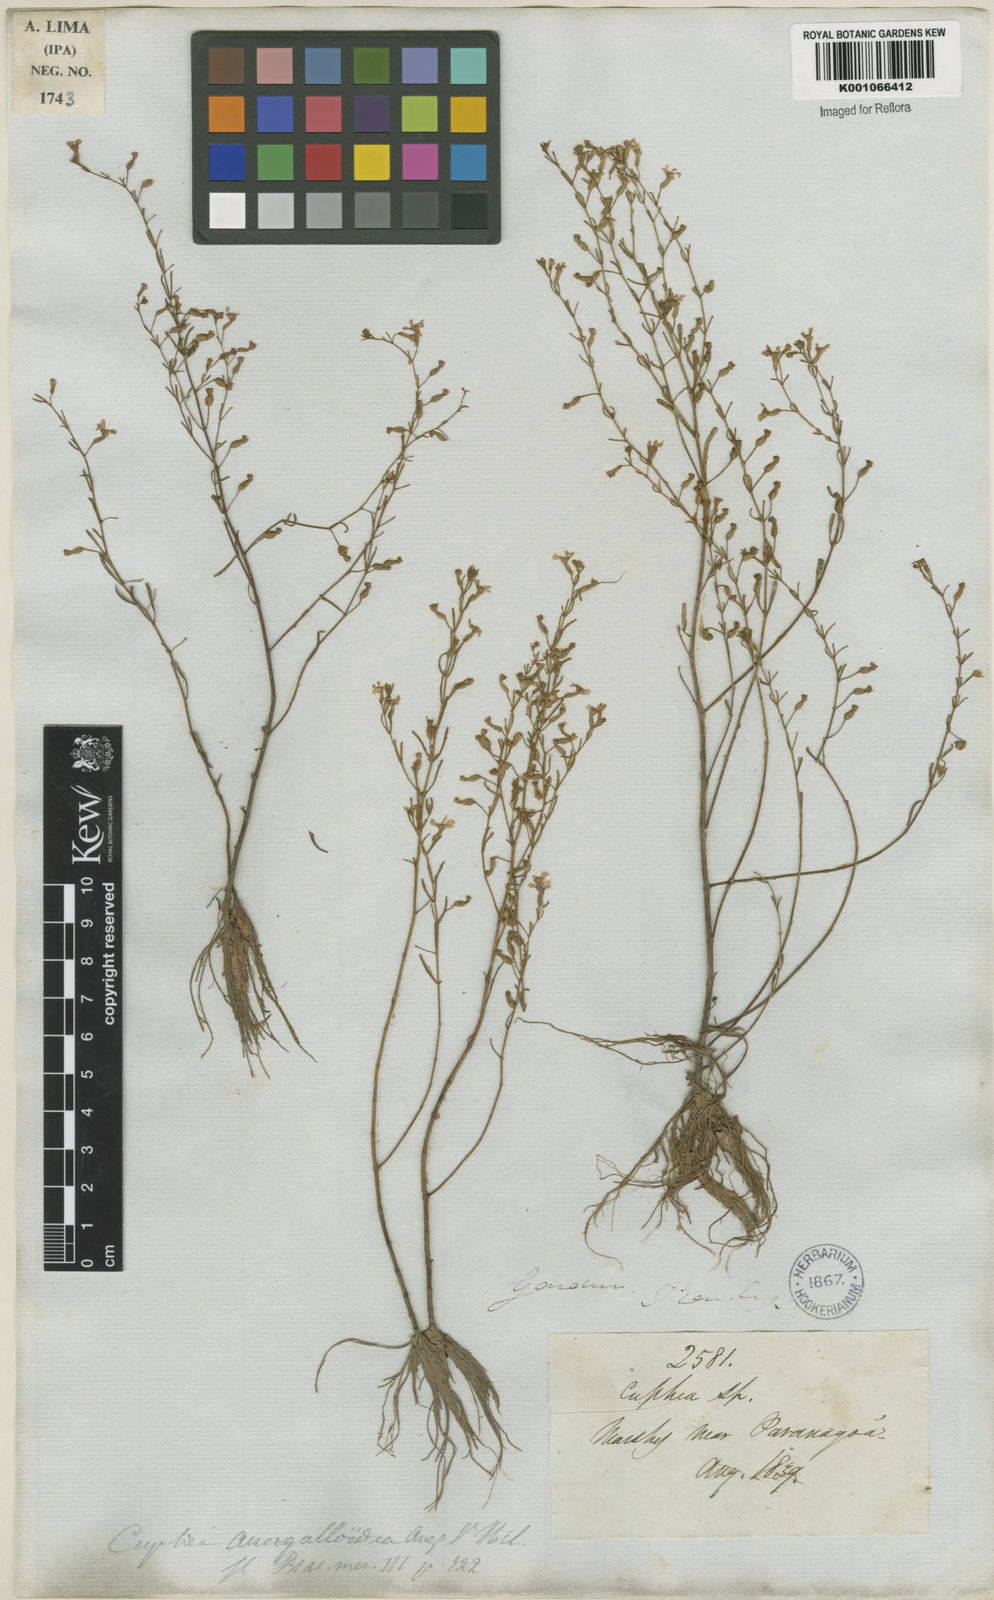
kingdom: Plantae
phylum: Tracheophyta
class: Magnoliopsida
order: Myrtales
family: Lythraceae
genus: Cuphea
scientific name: Cuphea anagalloidea
